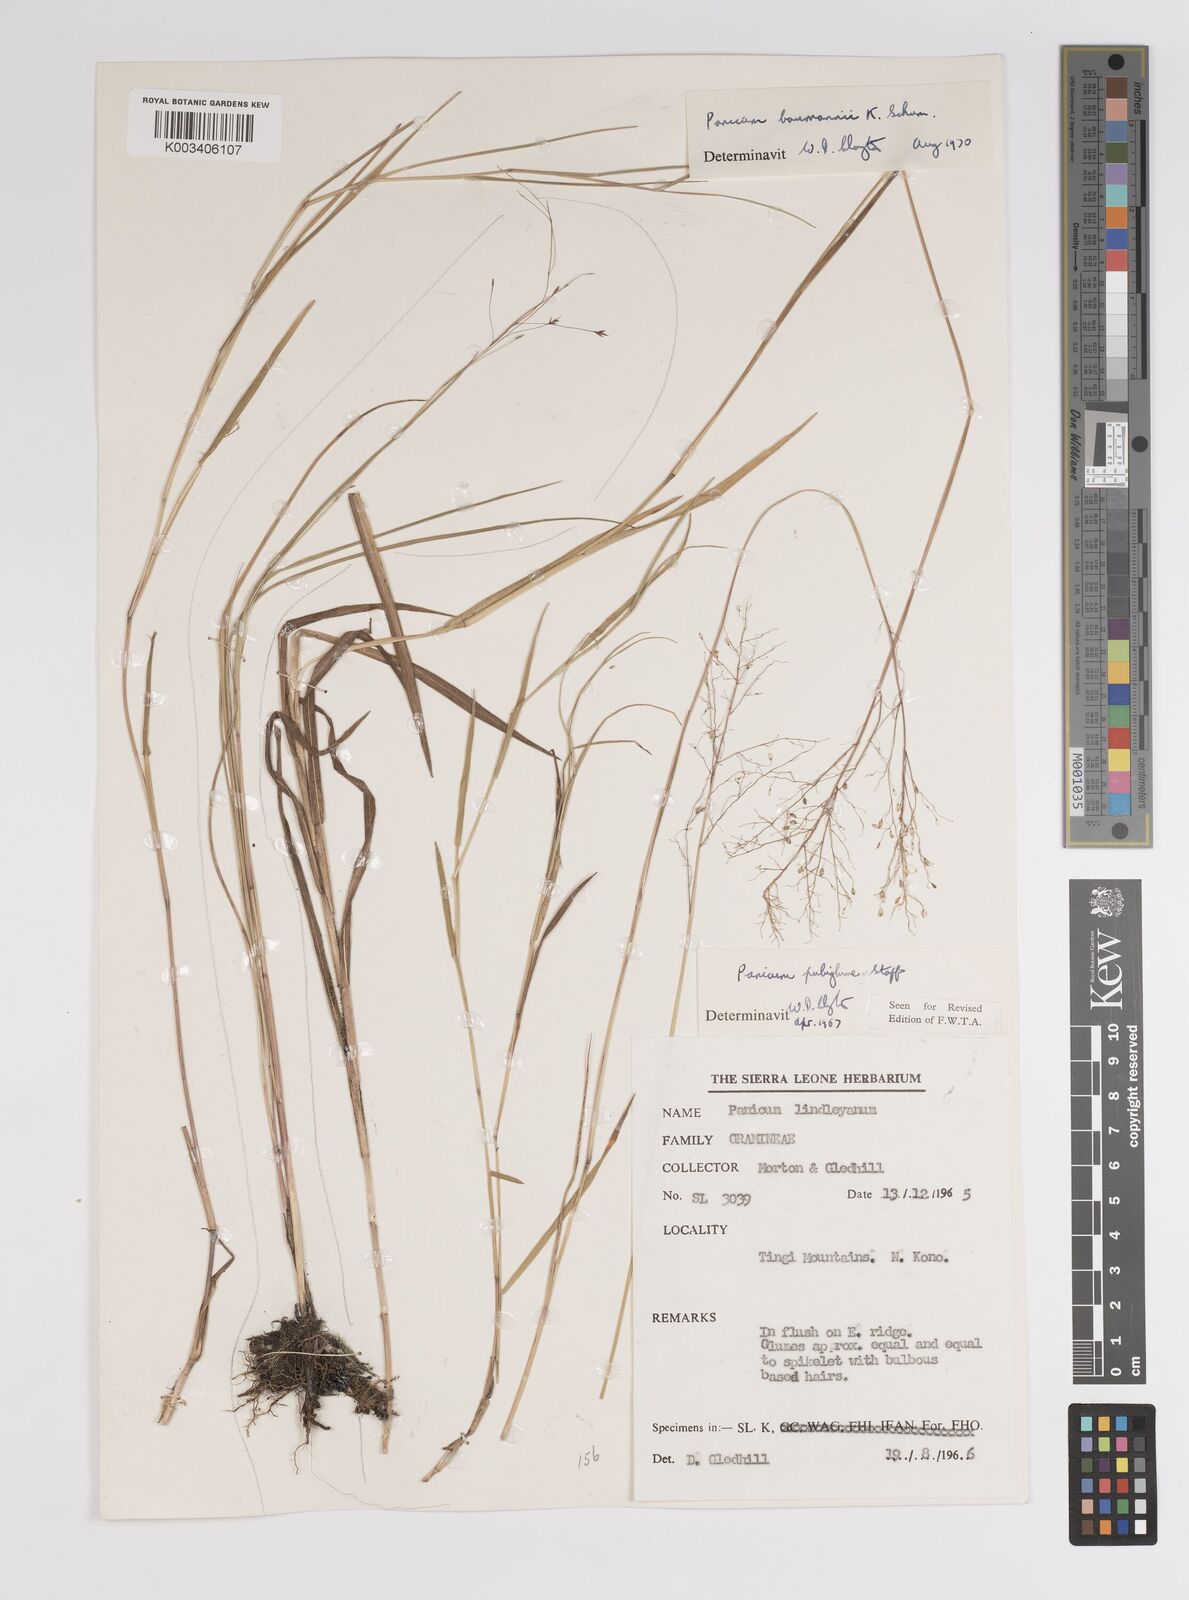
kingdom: Plantae
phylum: Tracheophyta
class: Liliopsida
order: Poales
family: Poaceae
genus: Trichanthecium
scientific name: Trichanthecium nervatum
